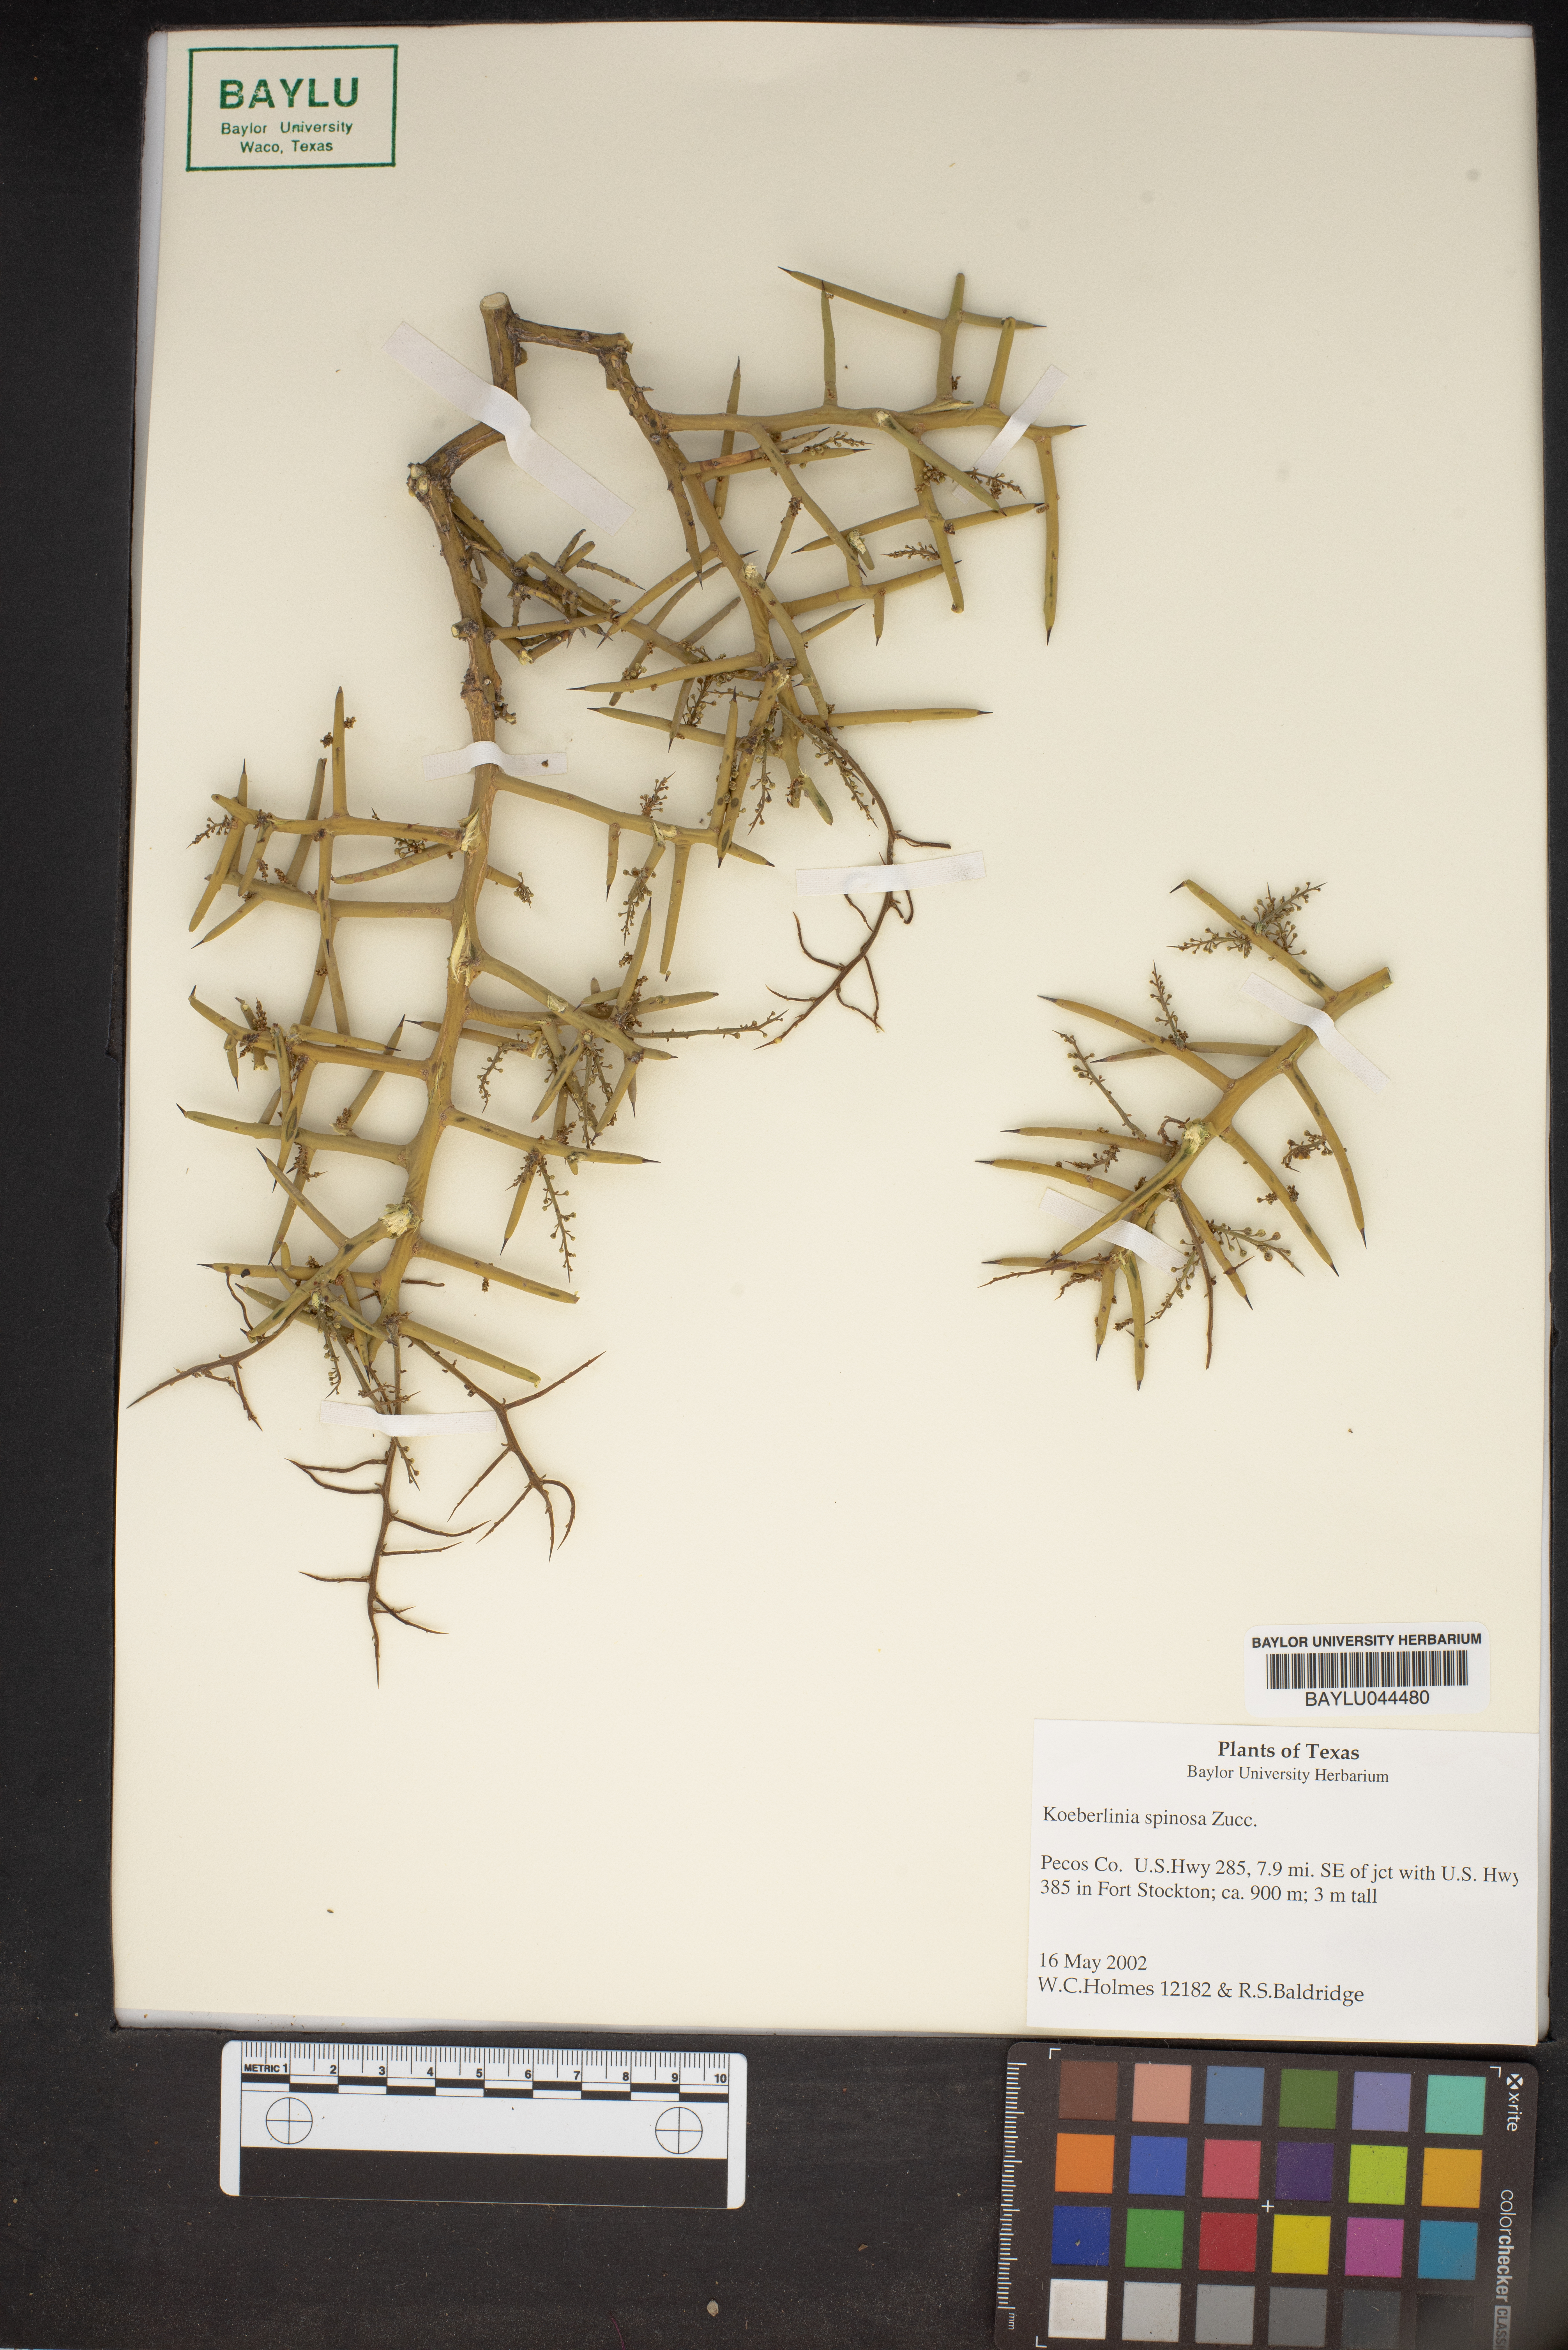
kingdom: Plantae
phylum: Tracheophyta
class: Magnoliopsida
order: Brassicales
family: Koeberliniaceae
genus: Koeberlinia
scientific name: Koeberlinia spinosa
